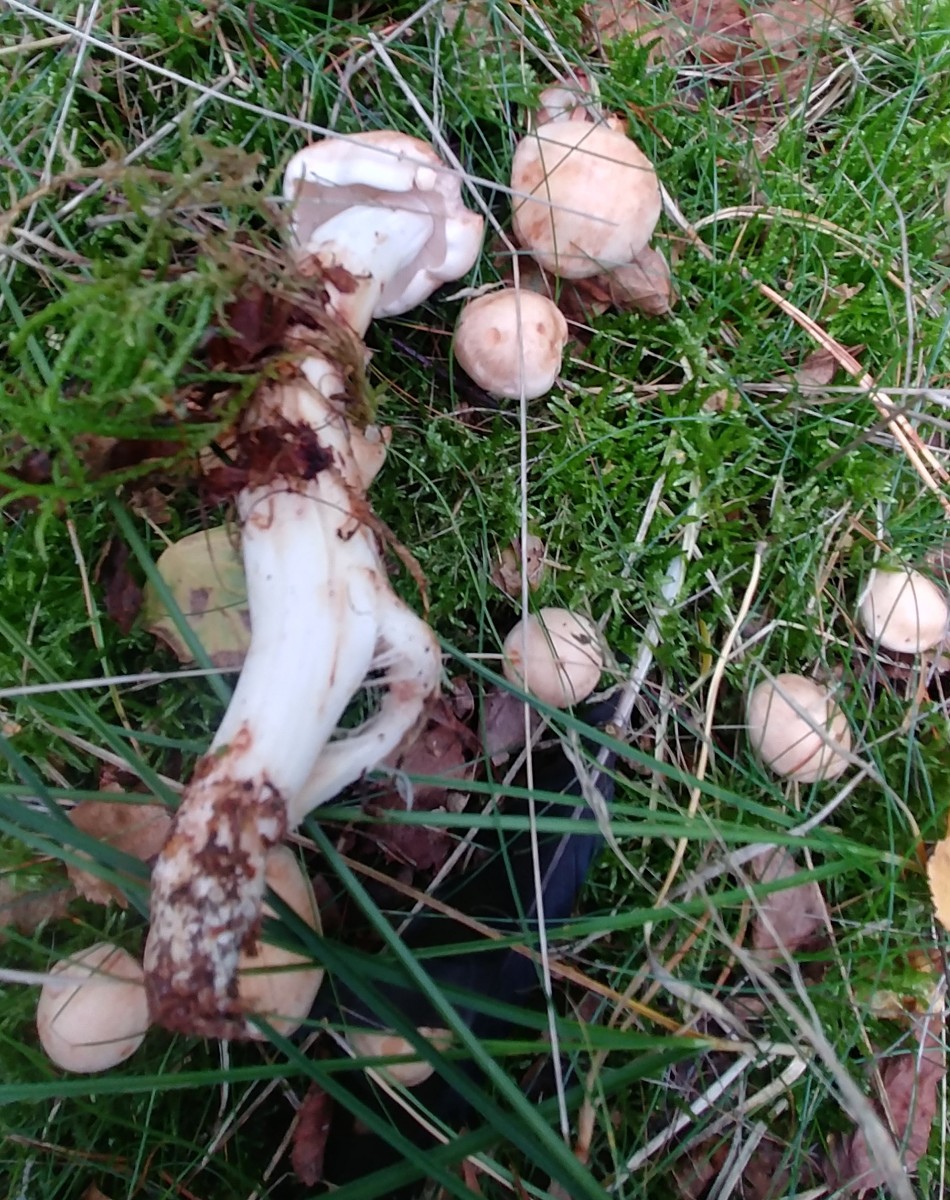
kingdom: Fungi
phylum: Basidiomycota
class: Agaricomycetes
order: Agaricales
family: Omphalotaceae
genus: Rhodocollybia
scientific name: Rhodocollybia maculata
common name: plettet fladhat
